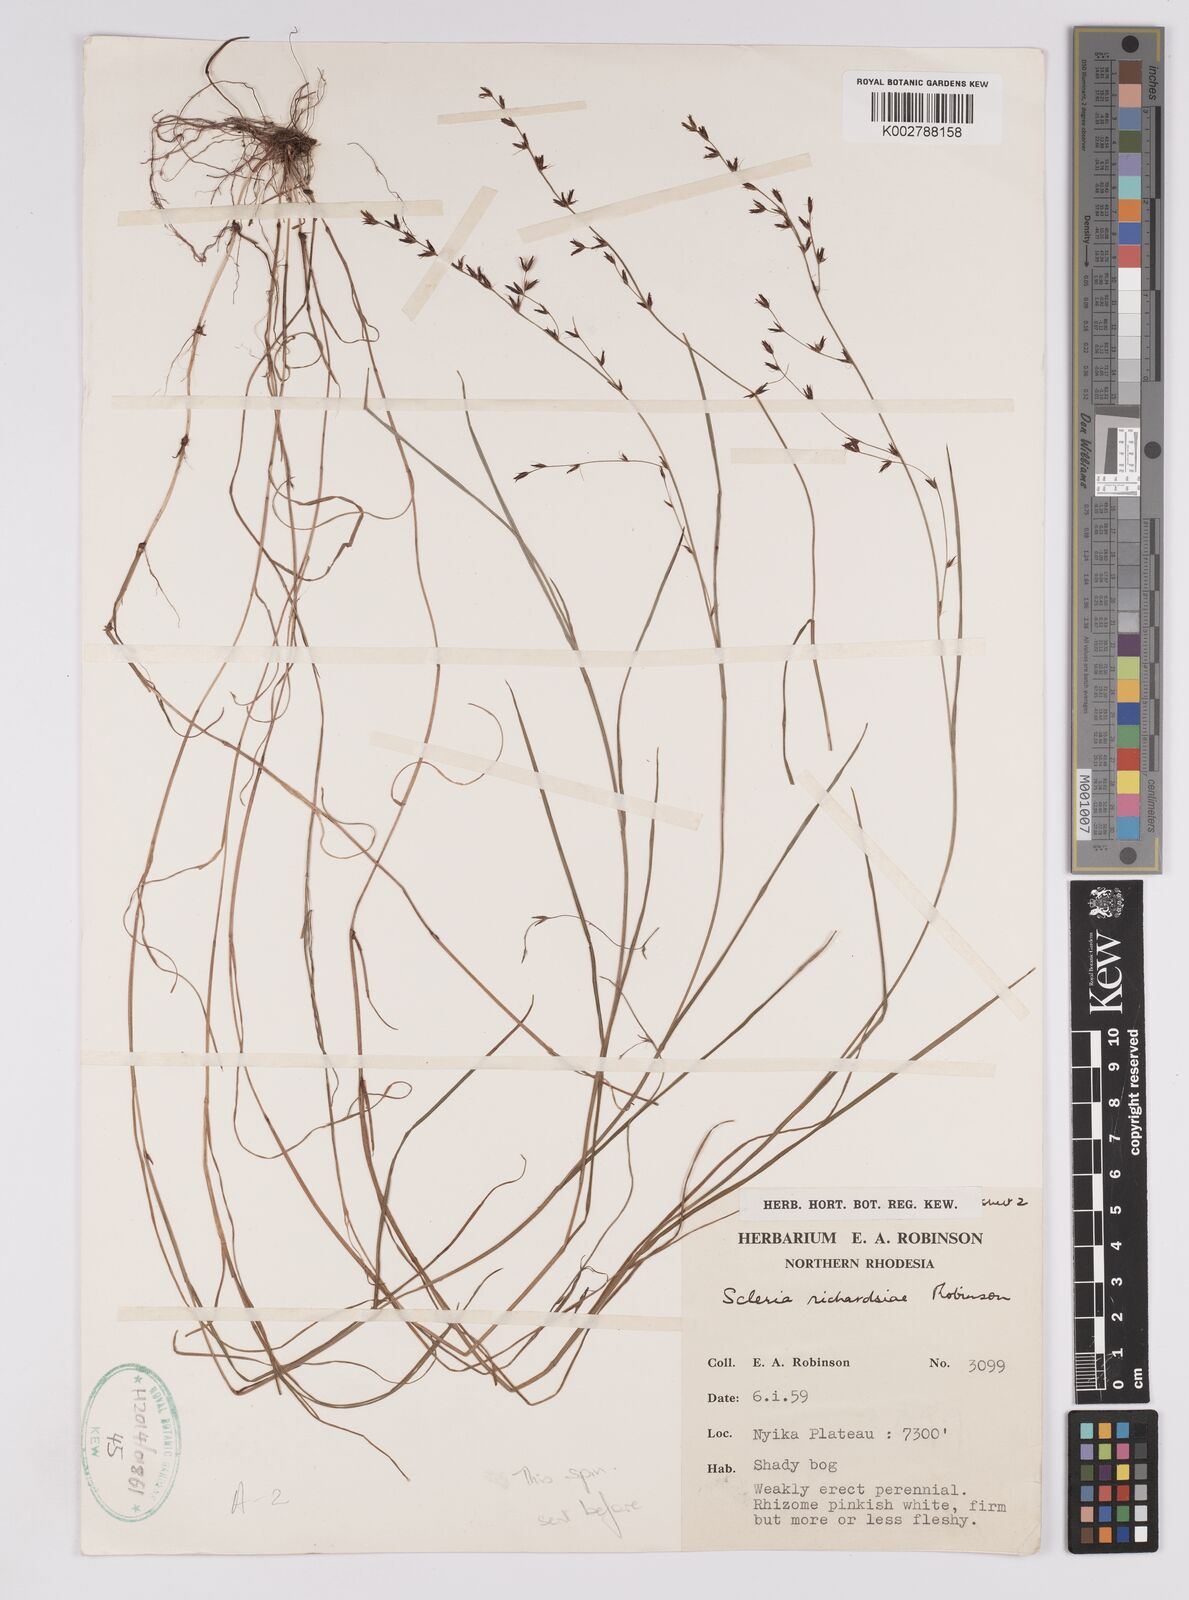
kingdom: Plantae
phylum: Tracheophyta
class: Liliopsida
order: Poales
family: Cyperaceae
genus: Scleria
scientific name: Scleria richardsiae
